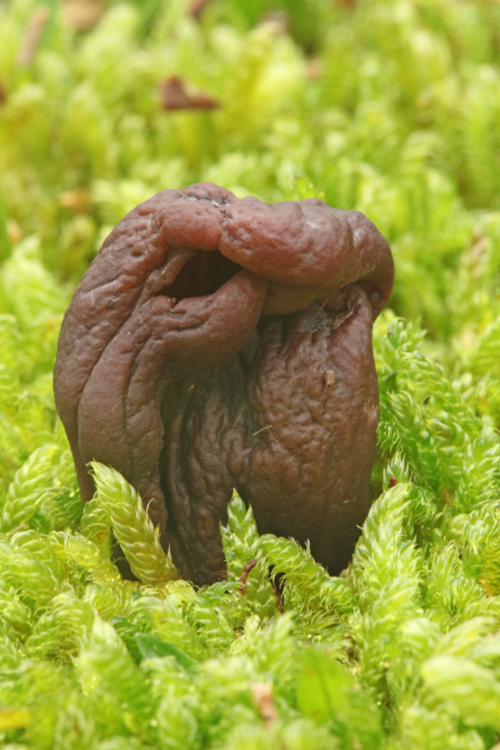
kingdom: Fungi
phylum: Ascomycota
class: Geoglossomycetes
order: Geoglossales
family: Geoglossaceae
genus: Geoglossum
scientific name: Geoglossum atropurpureum
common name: purpursort farvetunge
